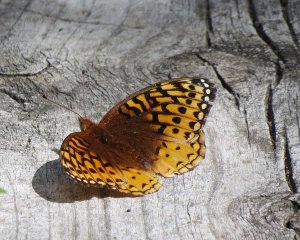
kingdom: Animalia
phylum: Arthropoda
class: Insecta
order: Lepidoptera
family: Nymphalidae
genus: Speyeria
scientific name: Speyeria cybele
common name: Great Spangled Fritillary
